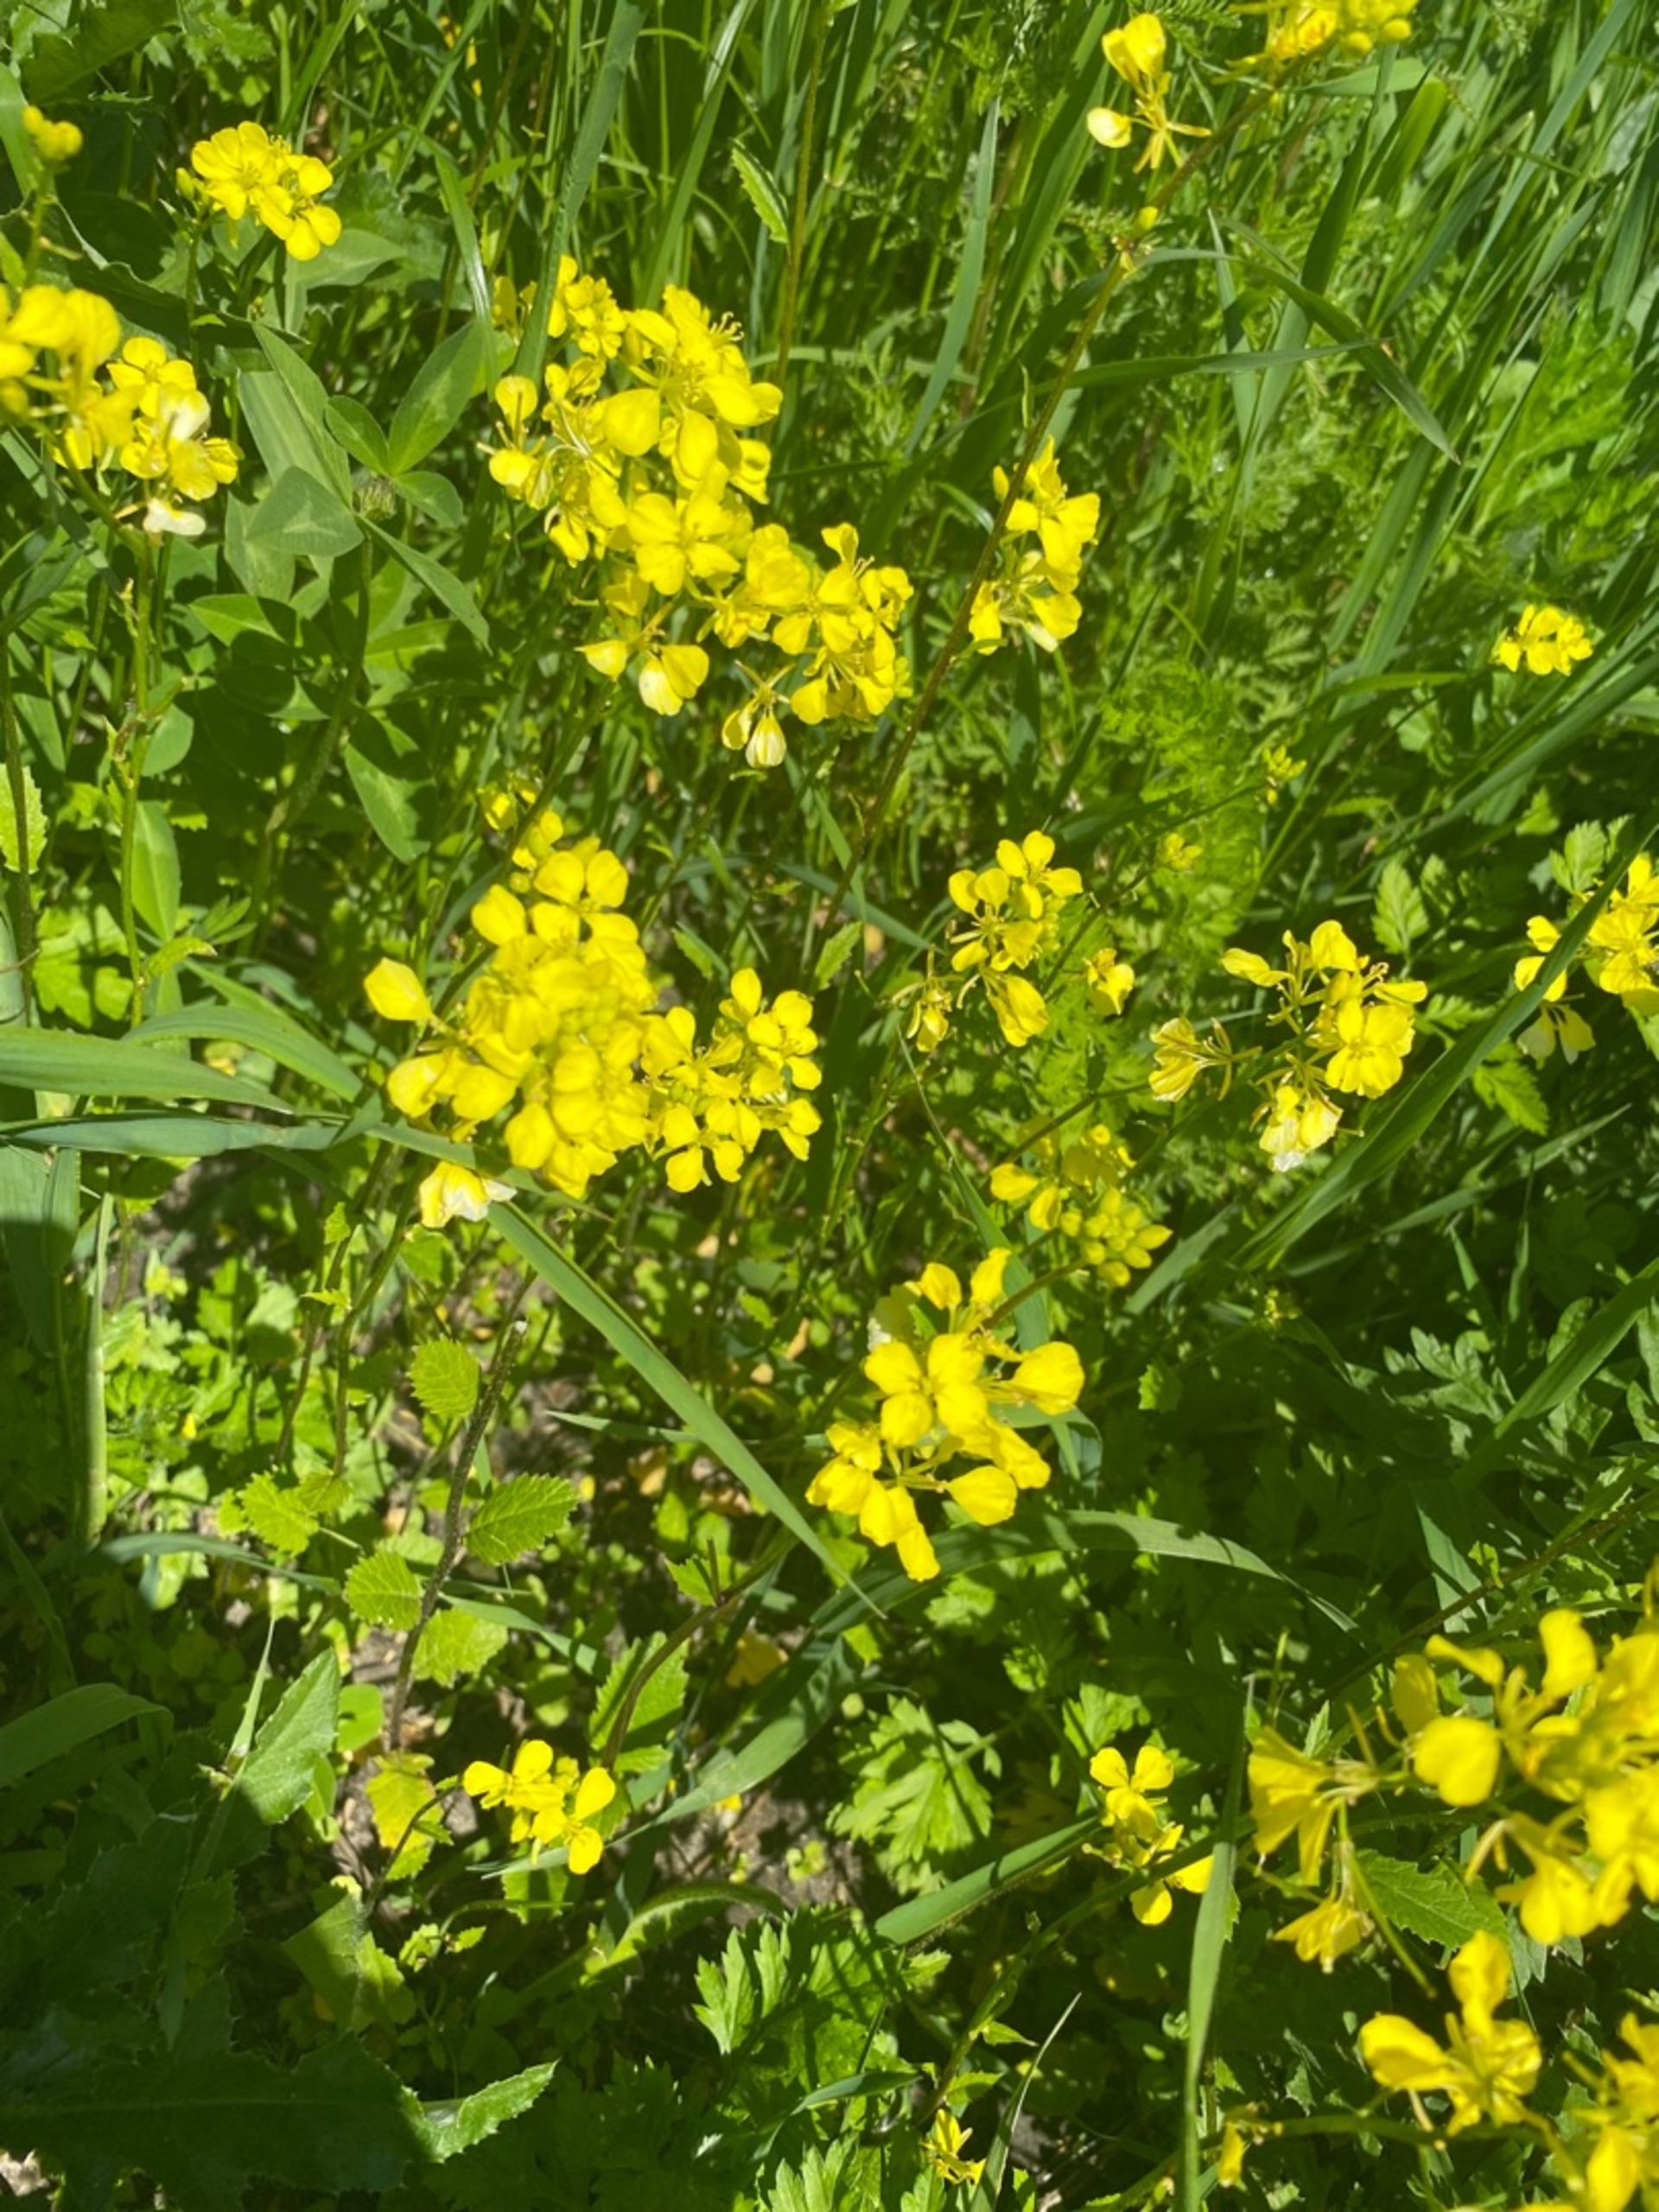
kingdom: Plantae
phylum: Tracheophyta
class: Magnoliopsida
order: Brassicales
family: Brassicaceae
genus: Sinapis
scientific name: Sinapis arvensis
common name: Ager-sennep
